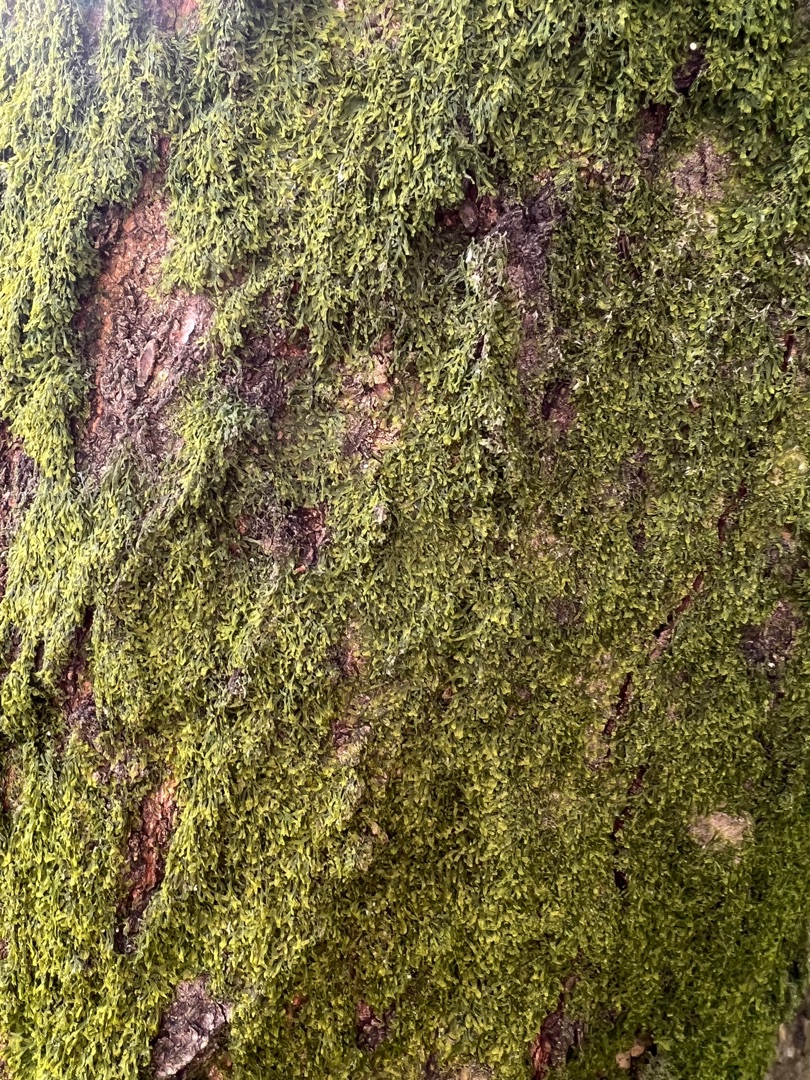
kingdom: Plantae
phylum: Marchantiophyta
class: Jungermanniopsida
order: Metzgeriales
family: Metzgeriaceae
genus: Metzgeria
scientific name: Metzgeria furcata
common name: Almindelig gaffelløv
